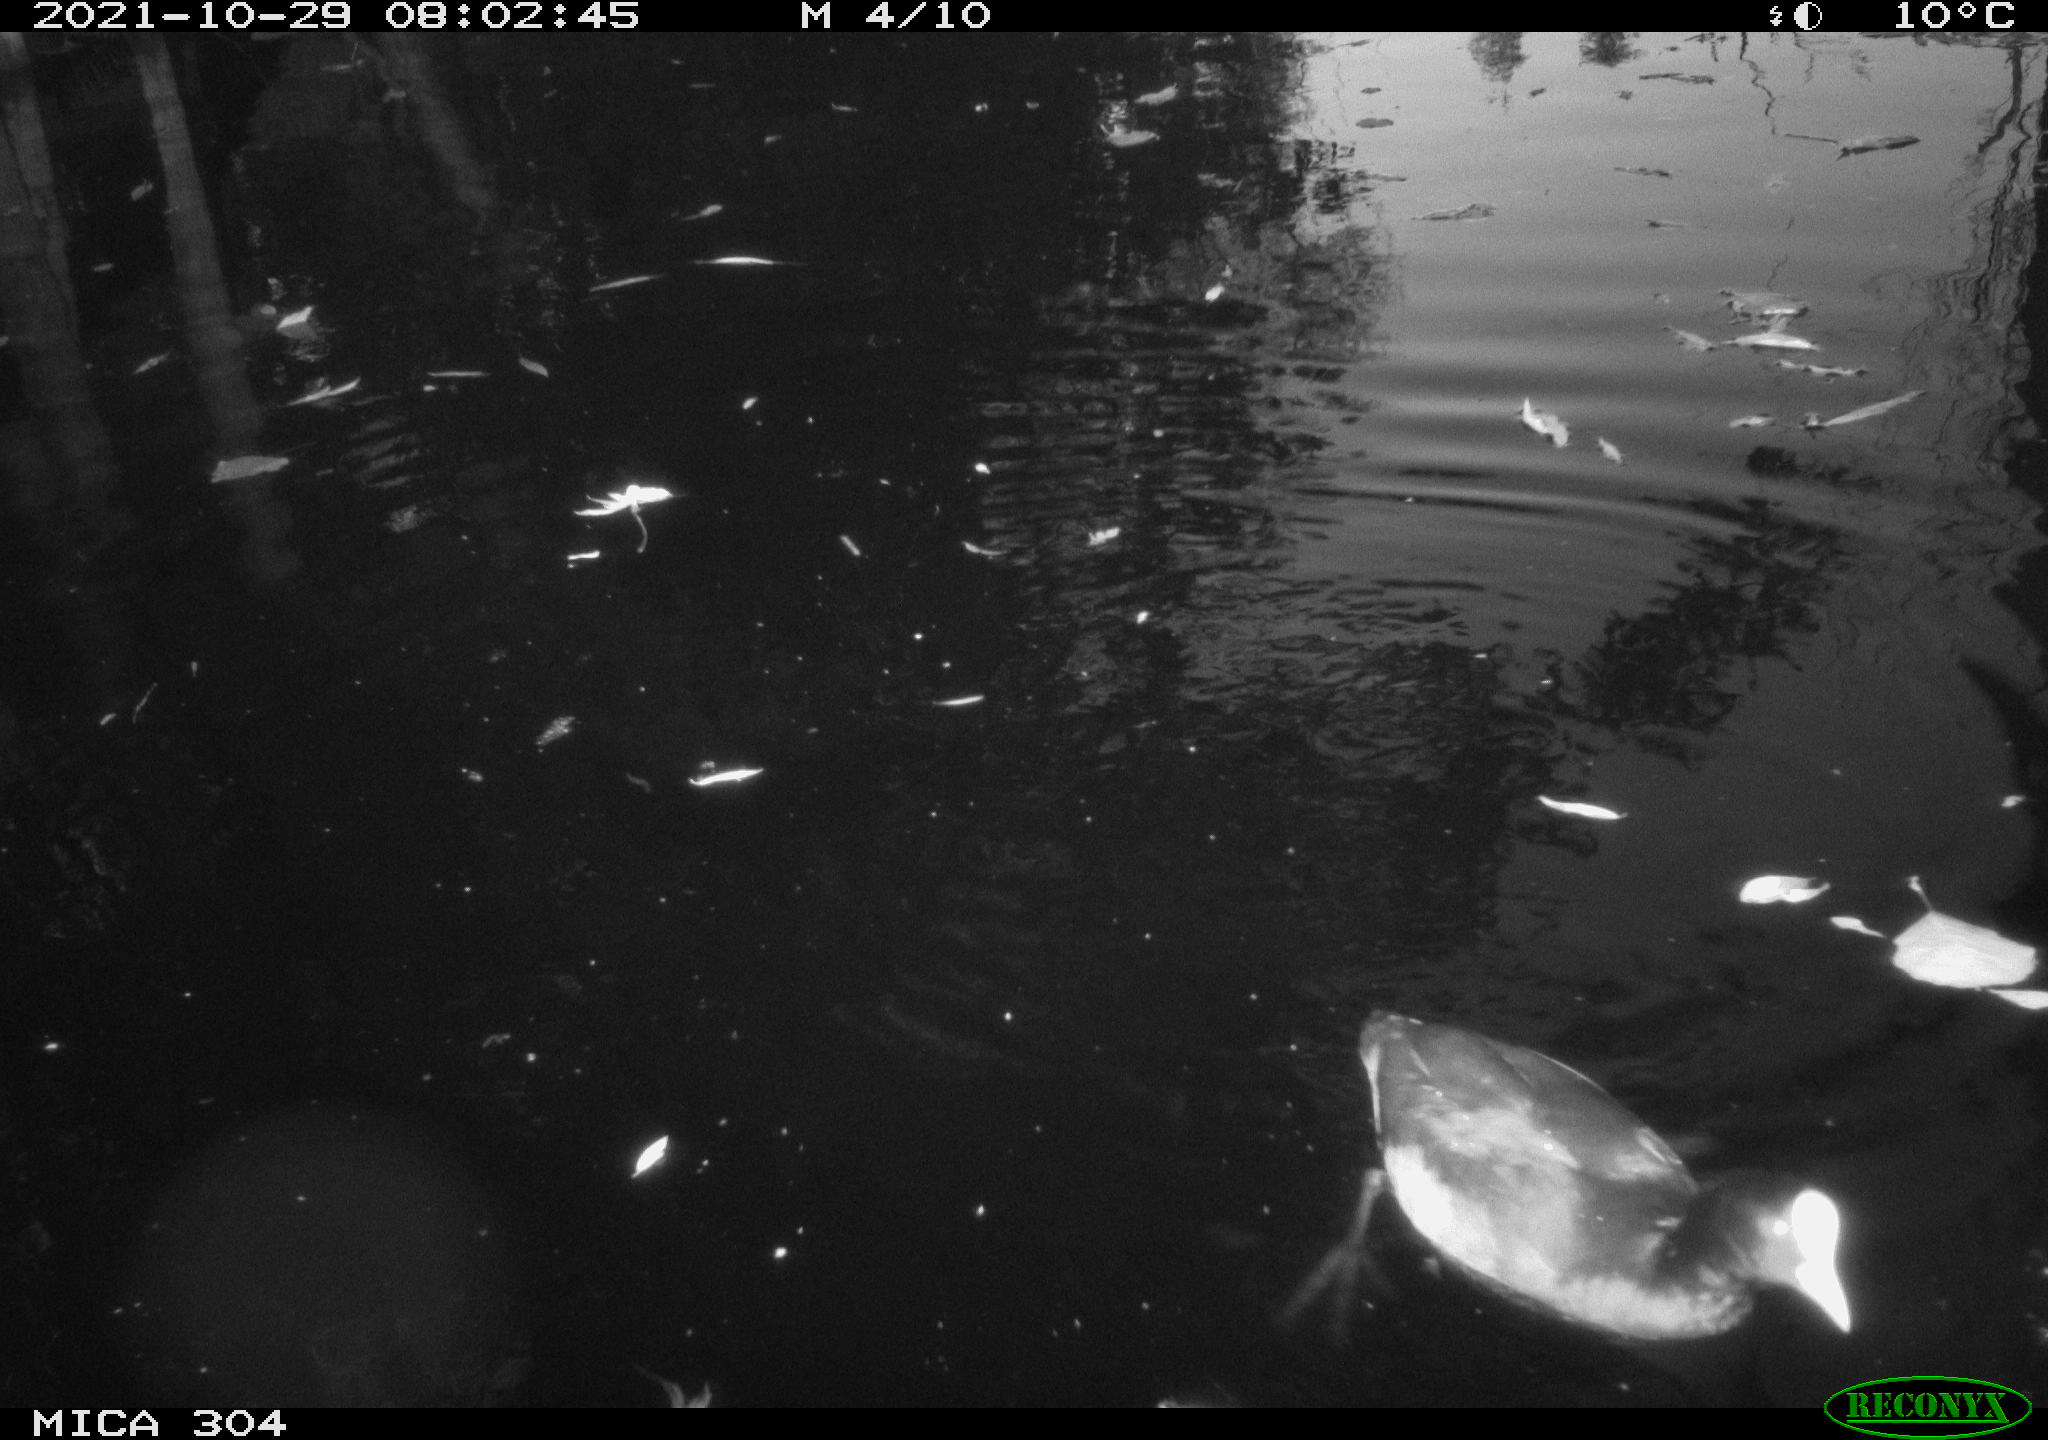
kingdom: Animalia
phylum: Chordata
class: Aves
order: Gruiformes
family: Rallidae
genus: Gallinula
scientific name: Gallinula chloropus
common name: Common moorhen
